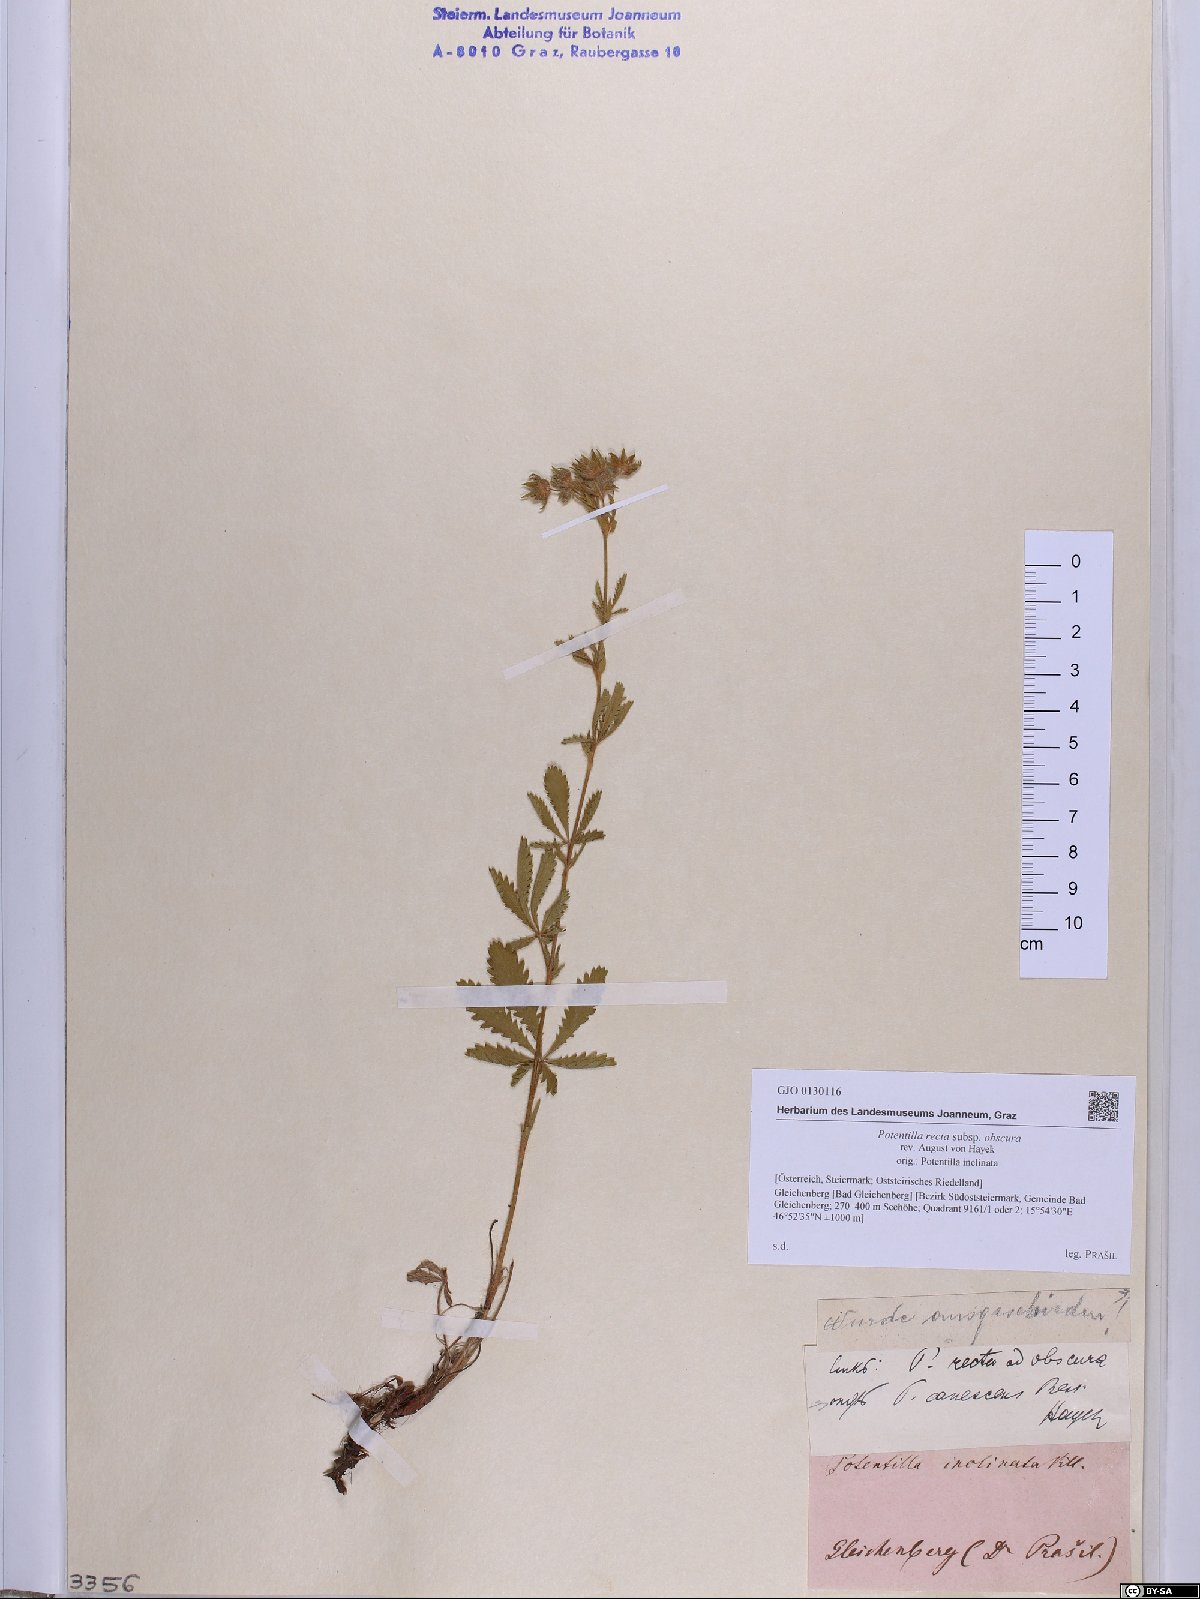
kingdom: Plantae
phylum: Tracheophyta
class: Magnoliopsida
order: Rosales
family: Rosaceae
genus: Potentilla
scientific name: Potentilla recta
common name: Sulphur cinquefoil
